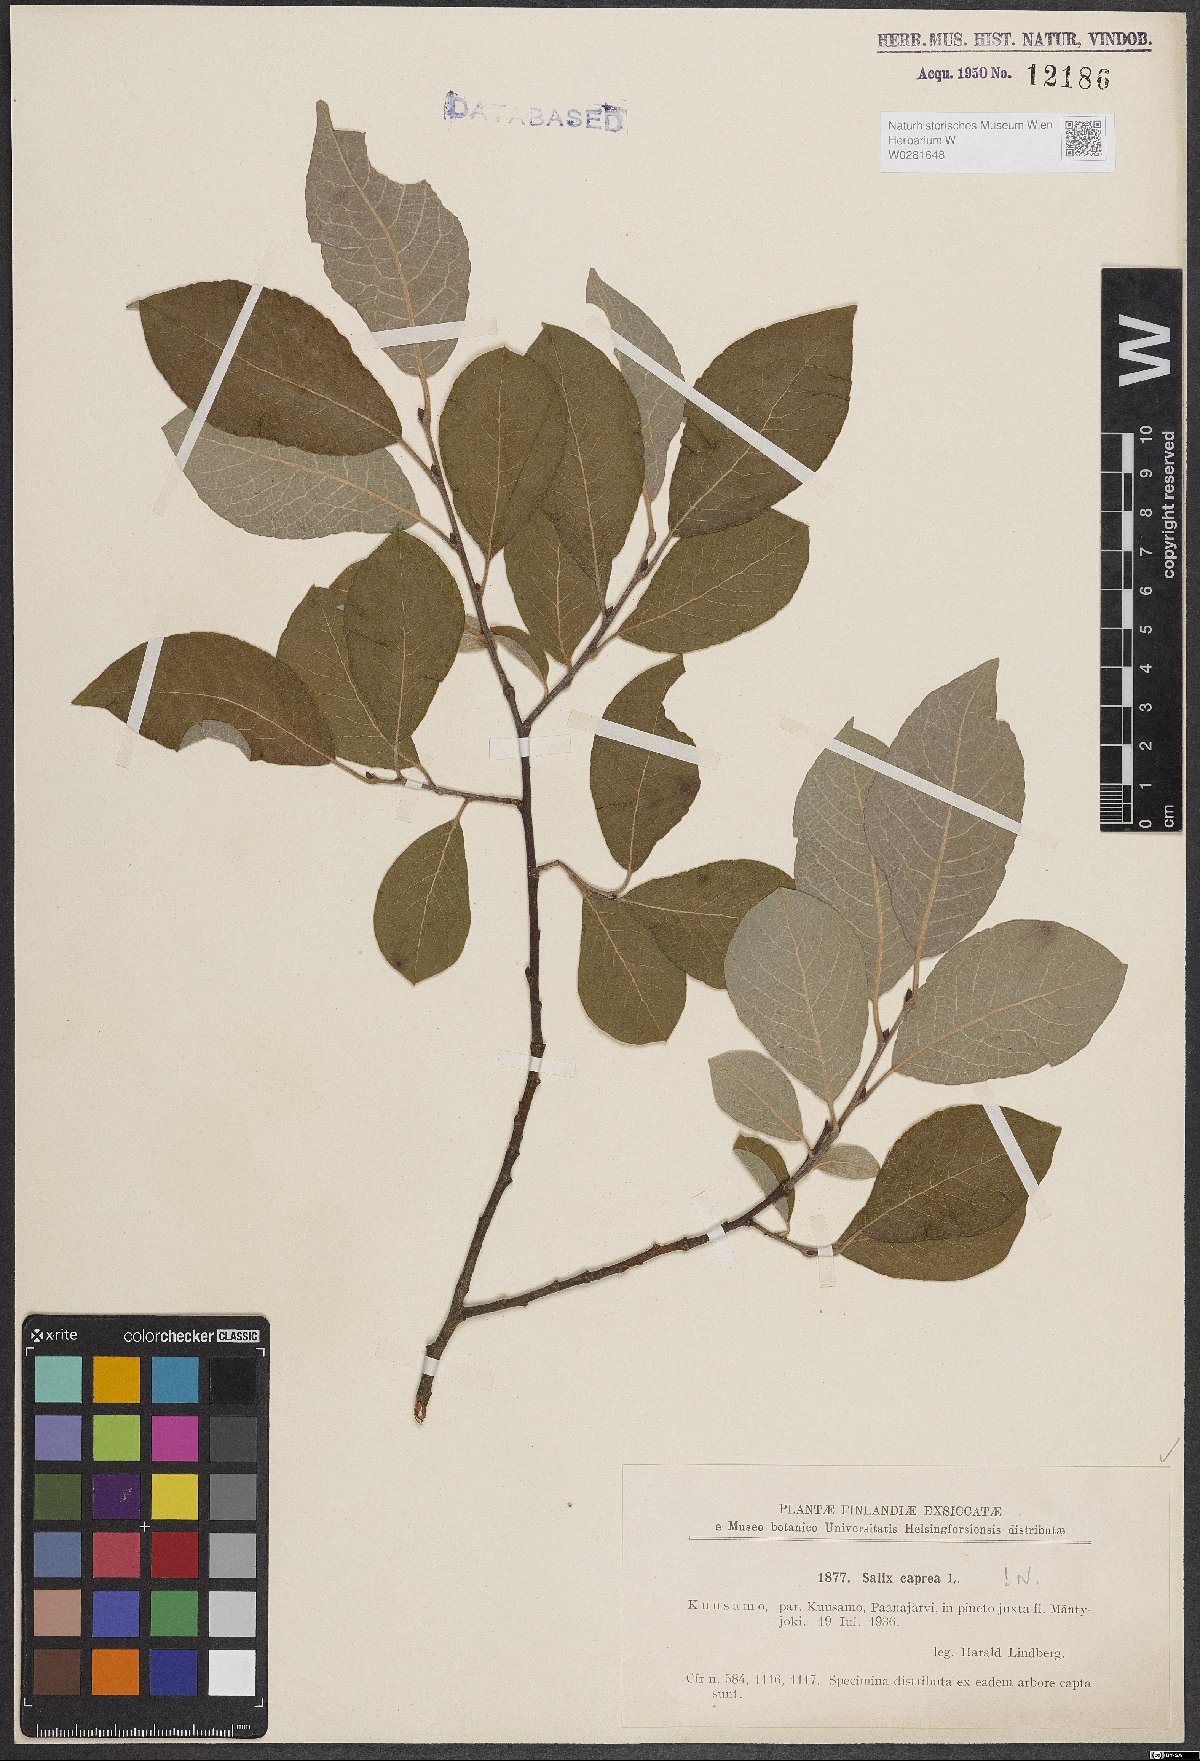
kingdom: Plantae
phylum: Tracheophyta
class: Magnoliopsida
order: Malpighiales
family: Salicaceae
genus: Salix
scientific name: Salix caprea
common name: Goat willow
